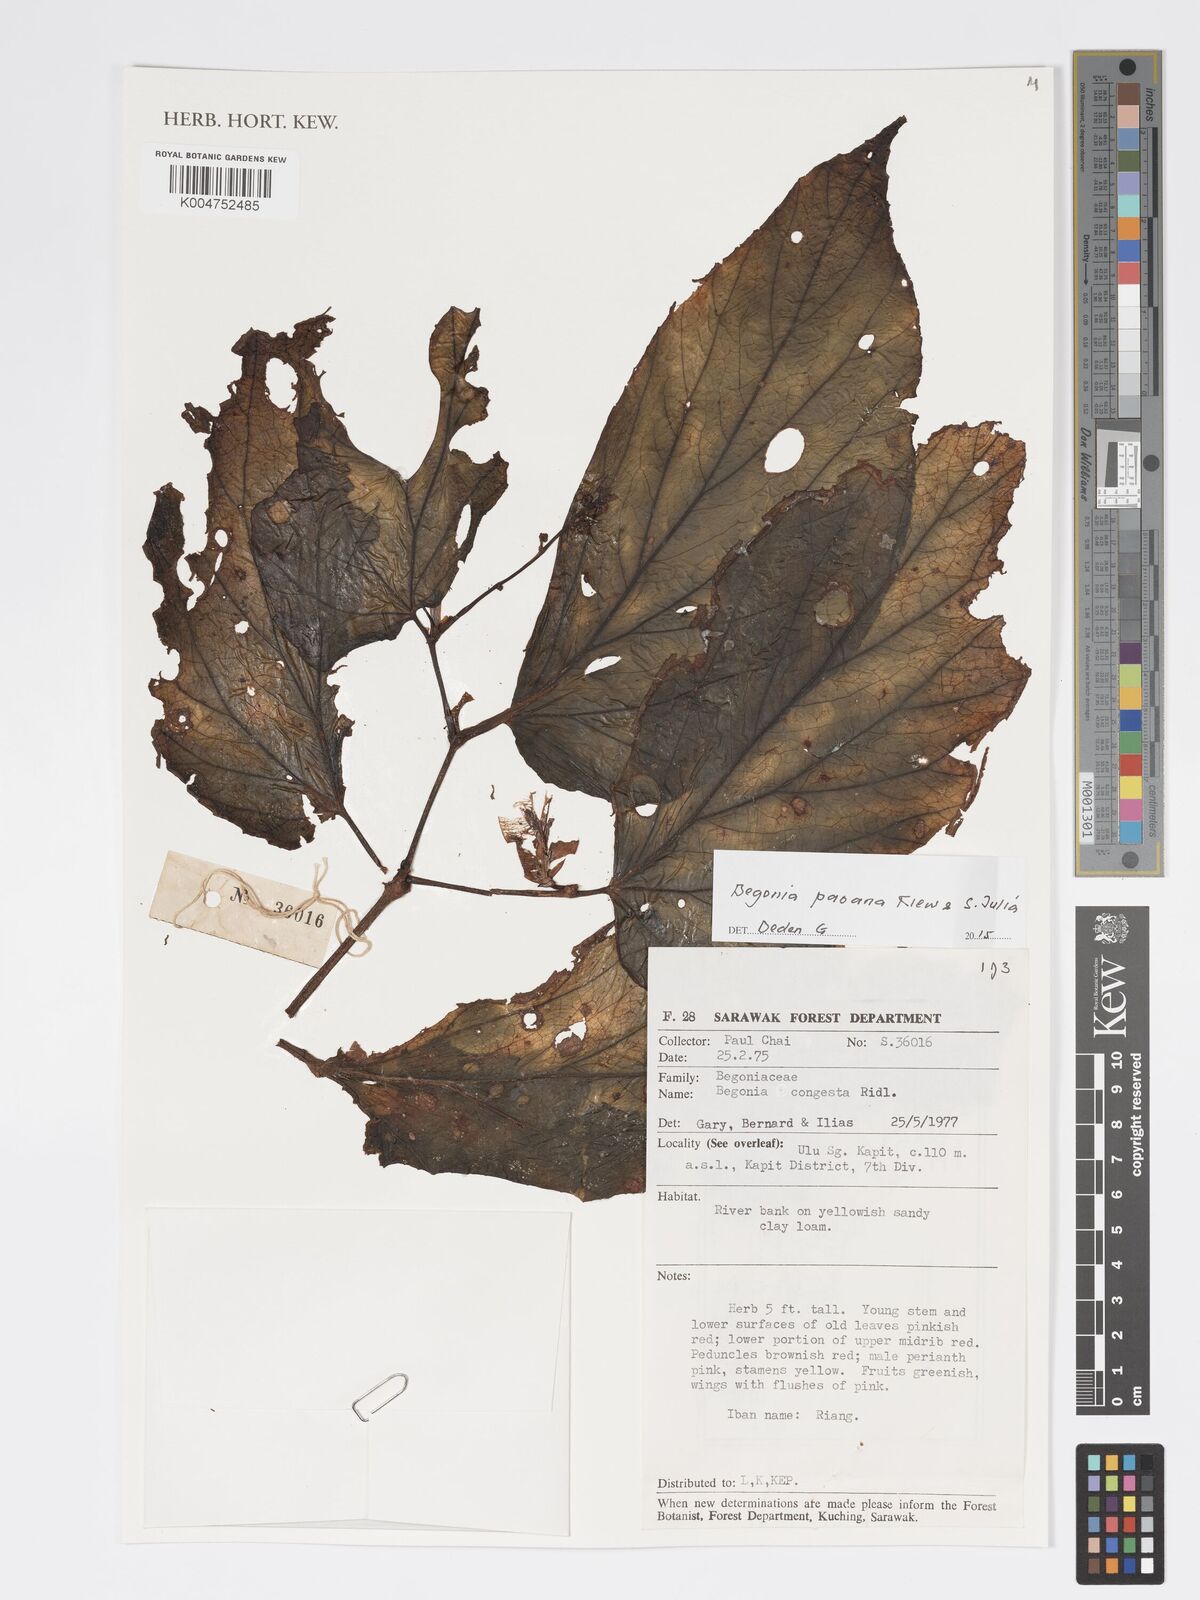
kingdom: Plantae
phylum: Tracheophyta
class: Magnoliopsida
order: Cucurbitales
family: Begoniaceae
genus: Begonia
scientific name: Begonia paoana
